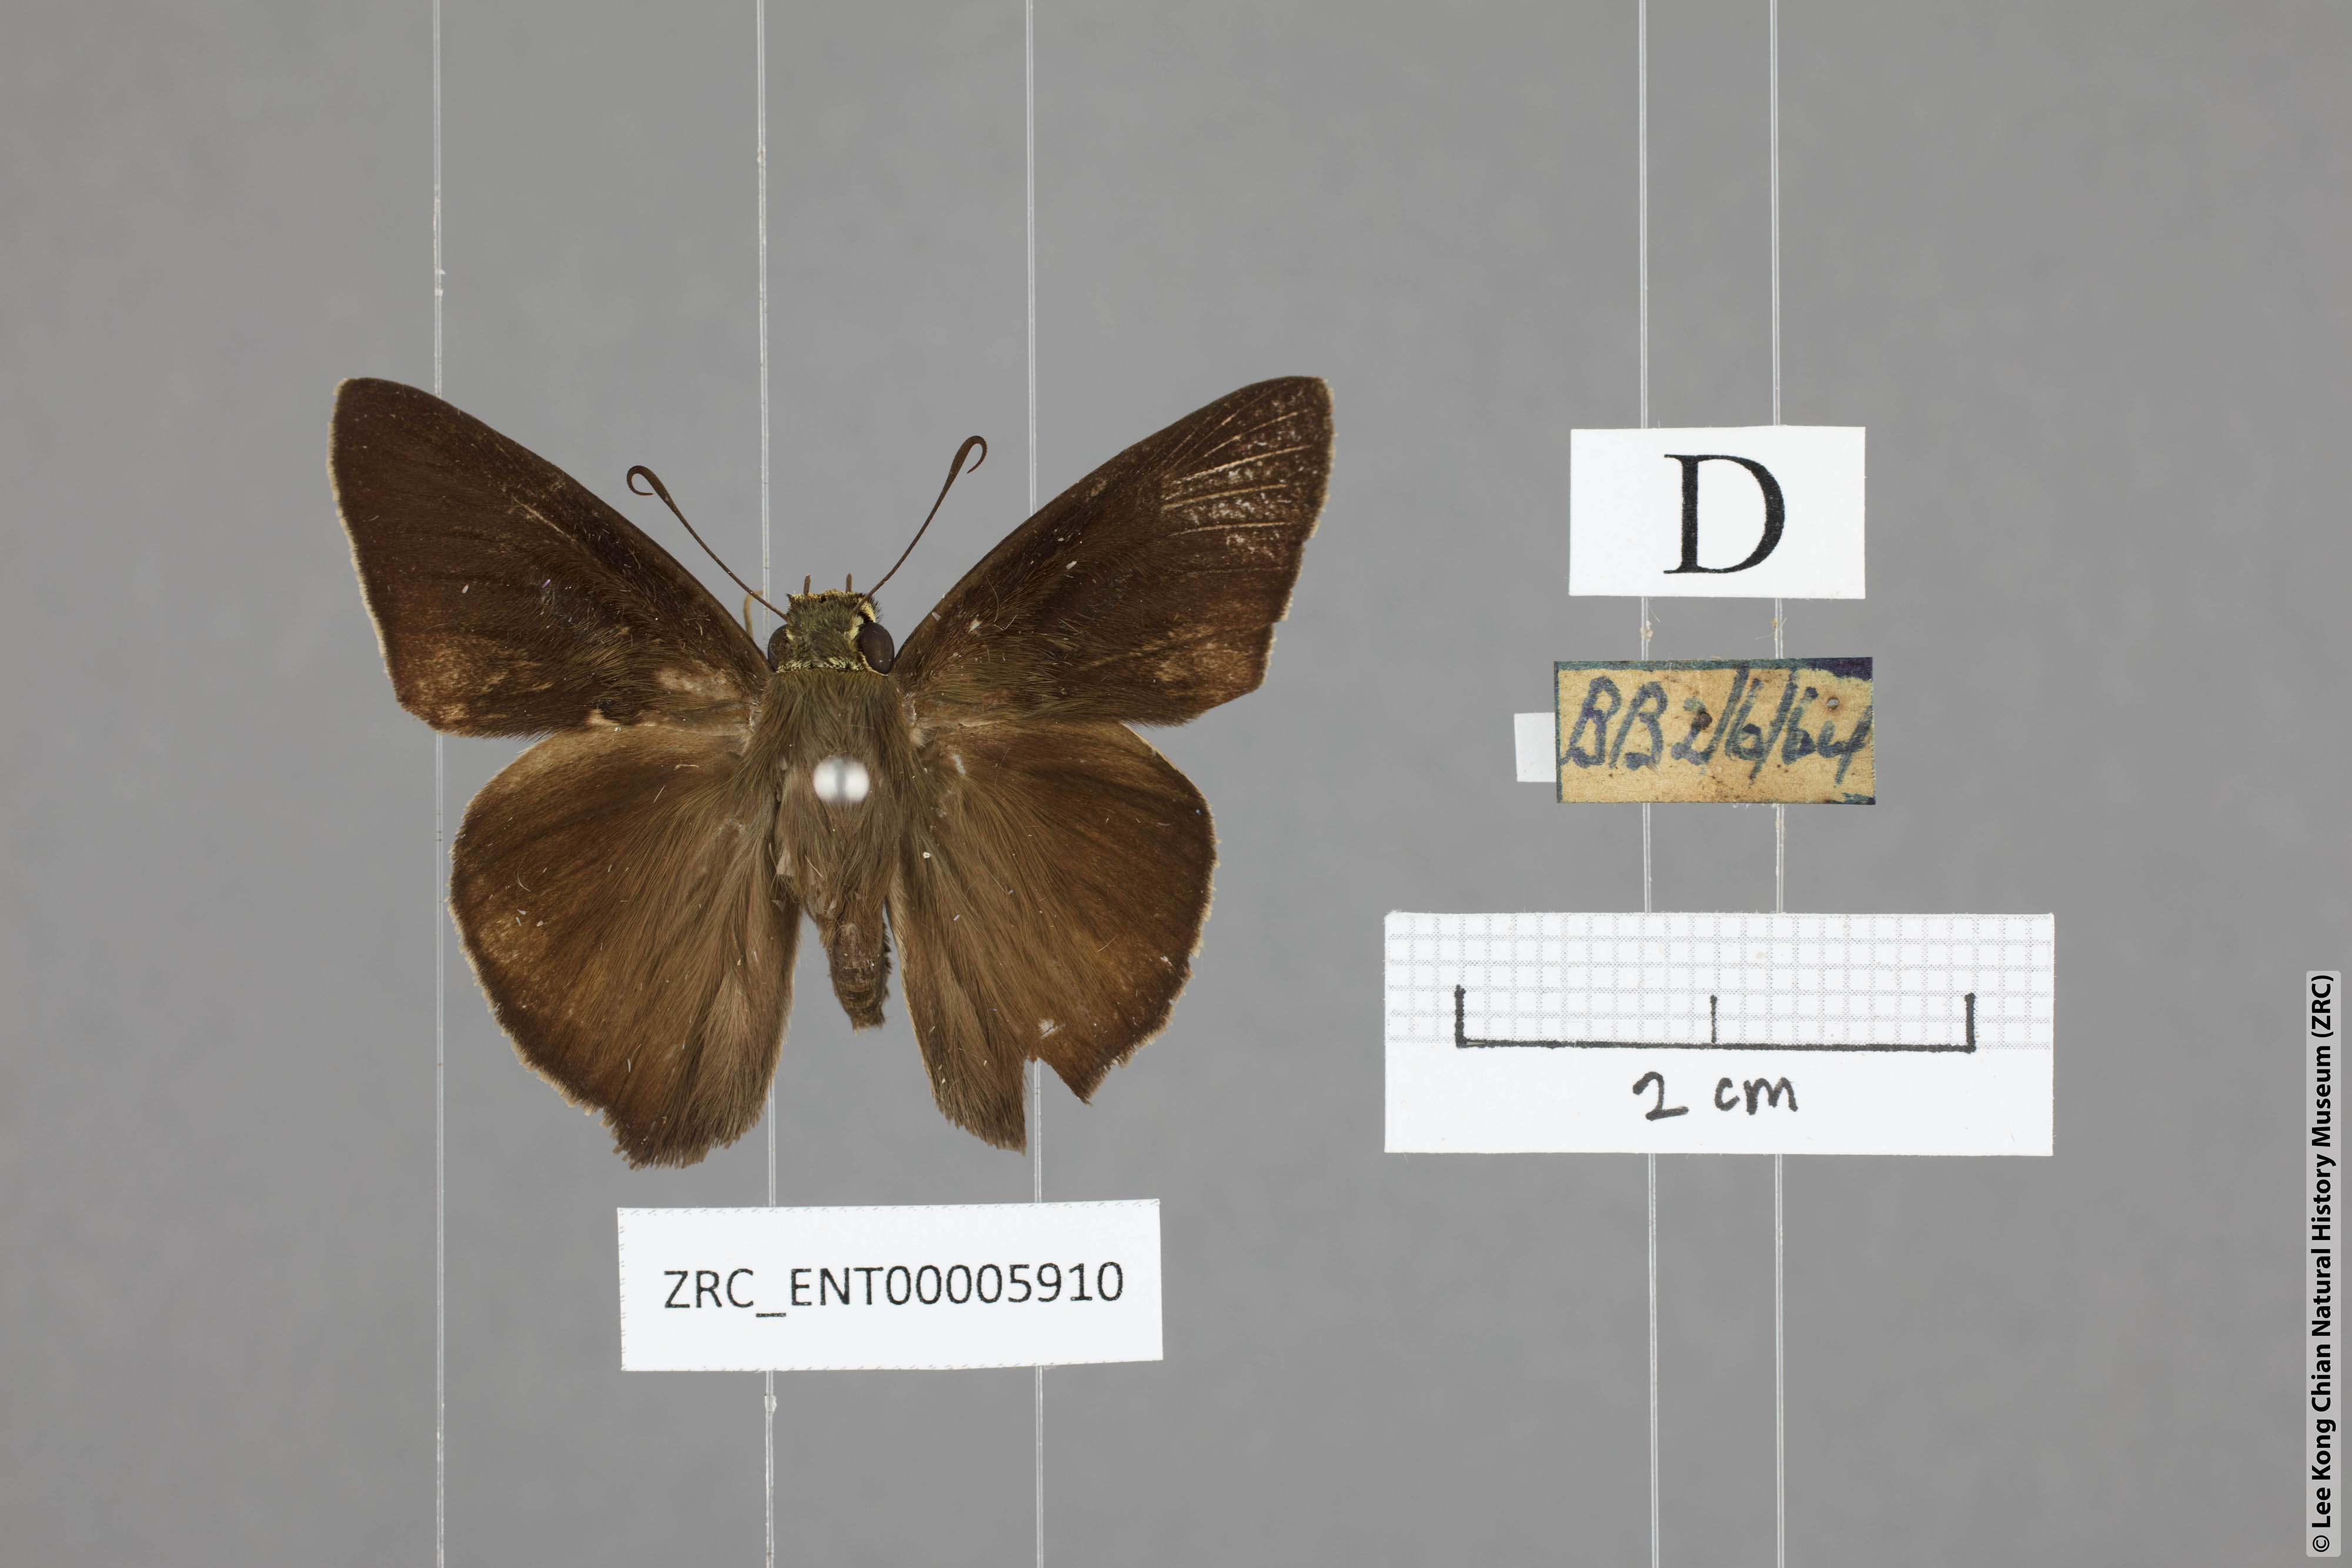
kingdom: Animalia
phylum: Arthropoda
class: Insecta
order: Lepidoptera
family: Hesperiidae
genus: Hasora
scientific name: Hasora taminatus
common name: White banded awl
